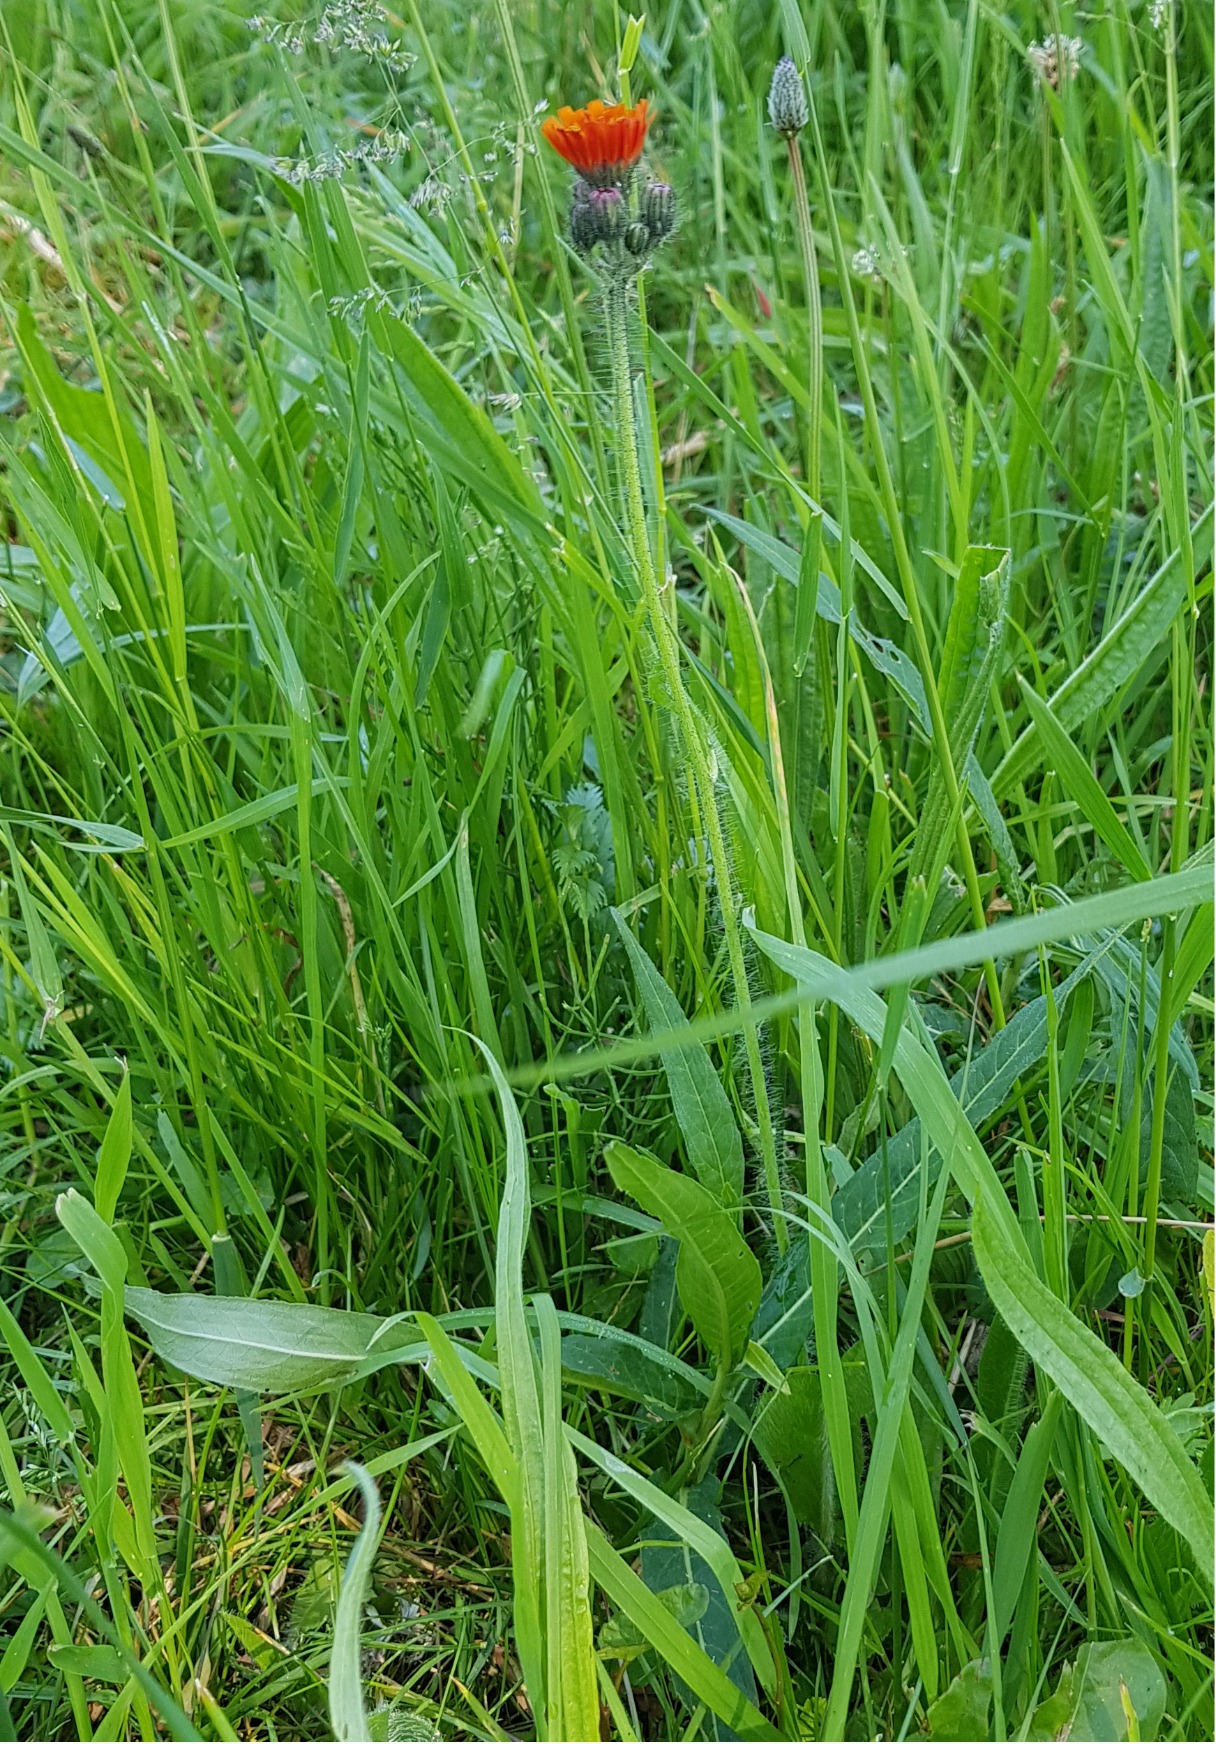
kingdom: Plantae
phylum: Tracheophyta
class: Magnoliopsida
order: Asterales
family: Asteraceae
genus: Pilosella
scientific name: Pilosella aurantiaca
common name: Pomerans-høgeurt
